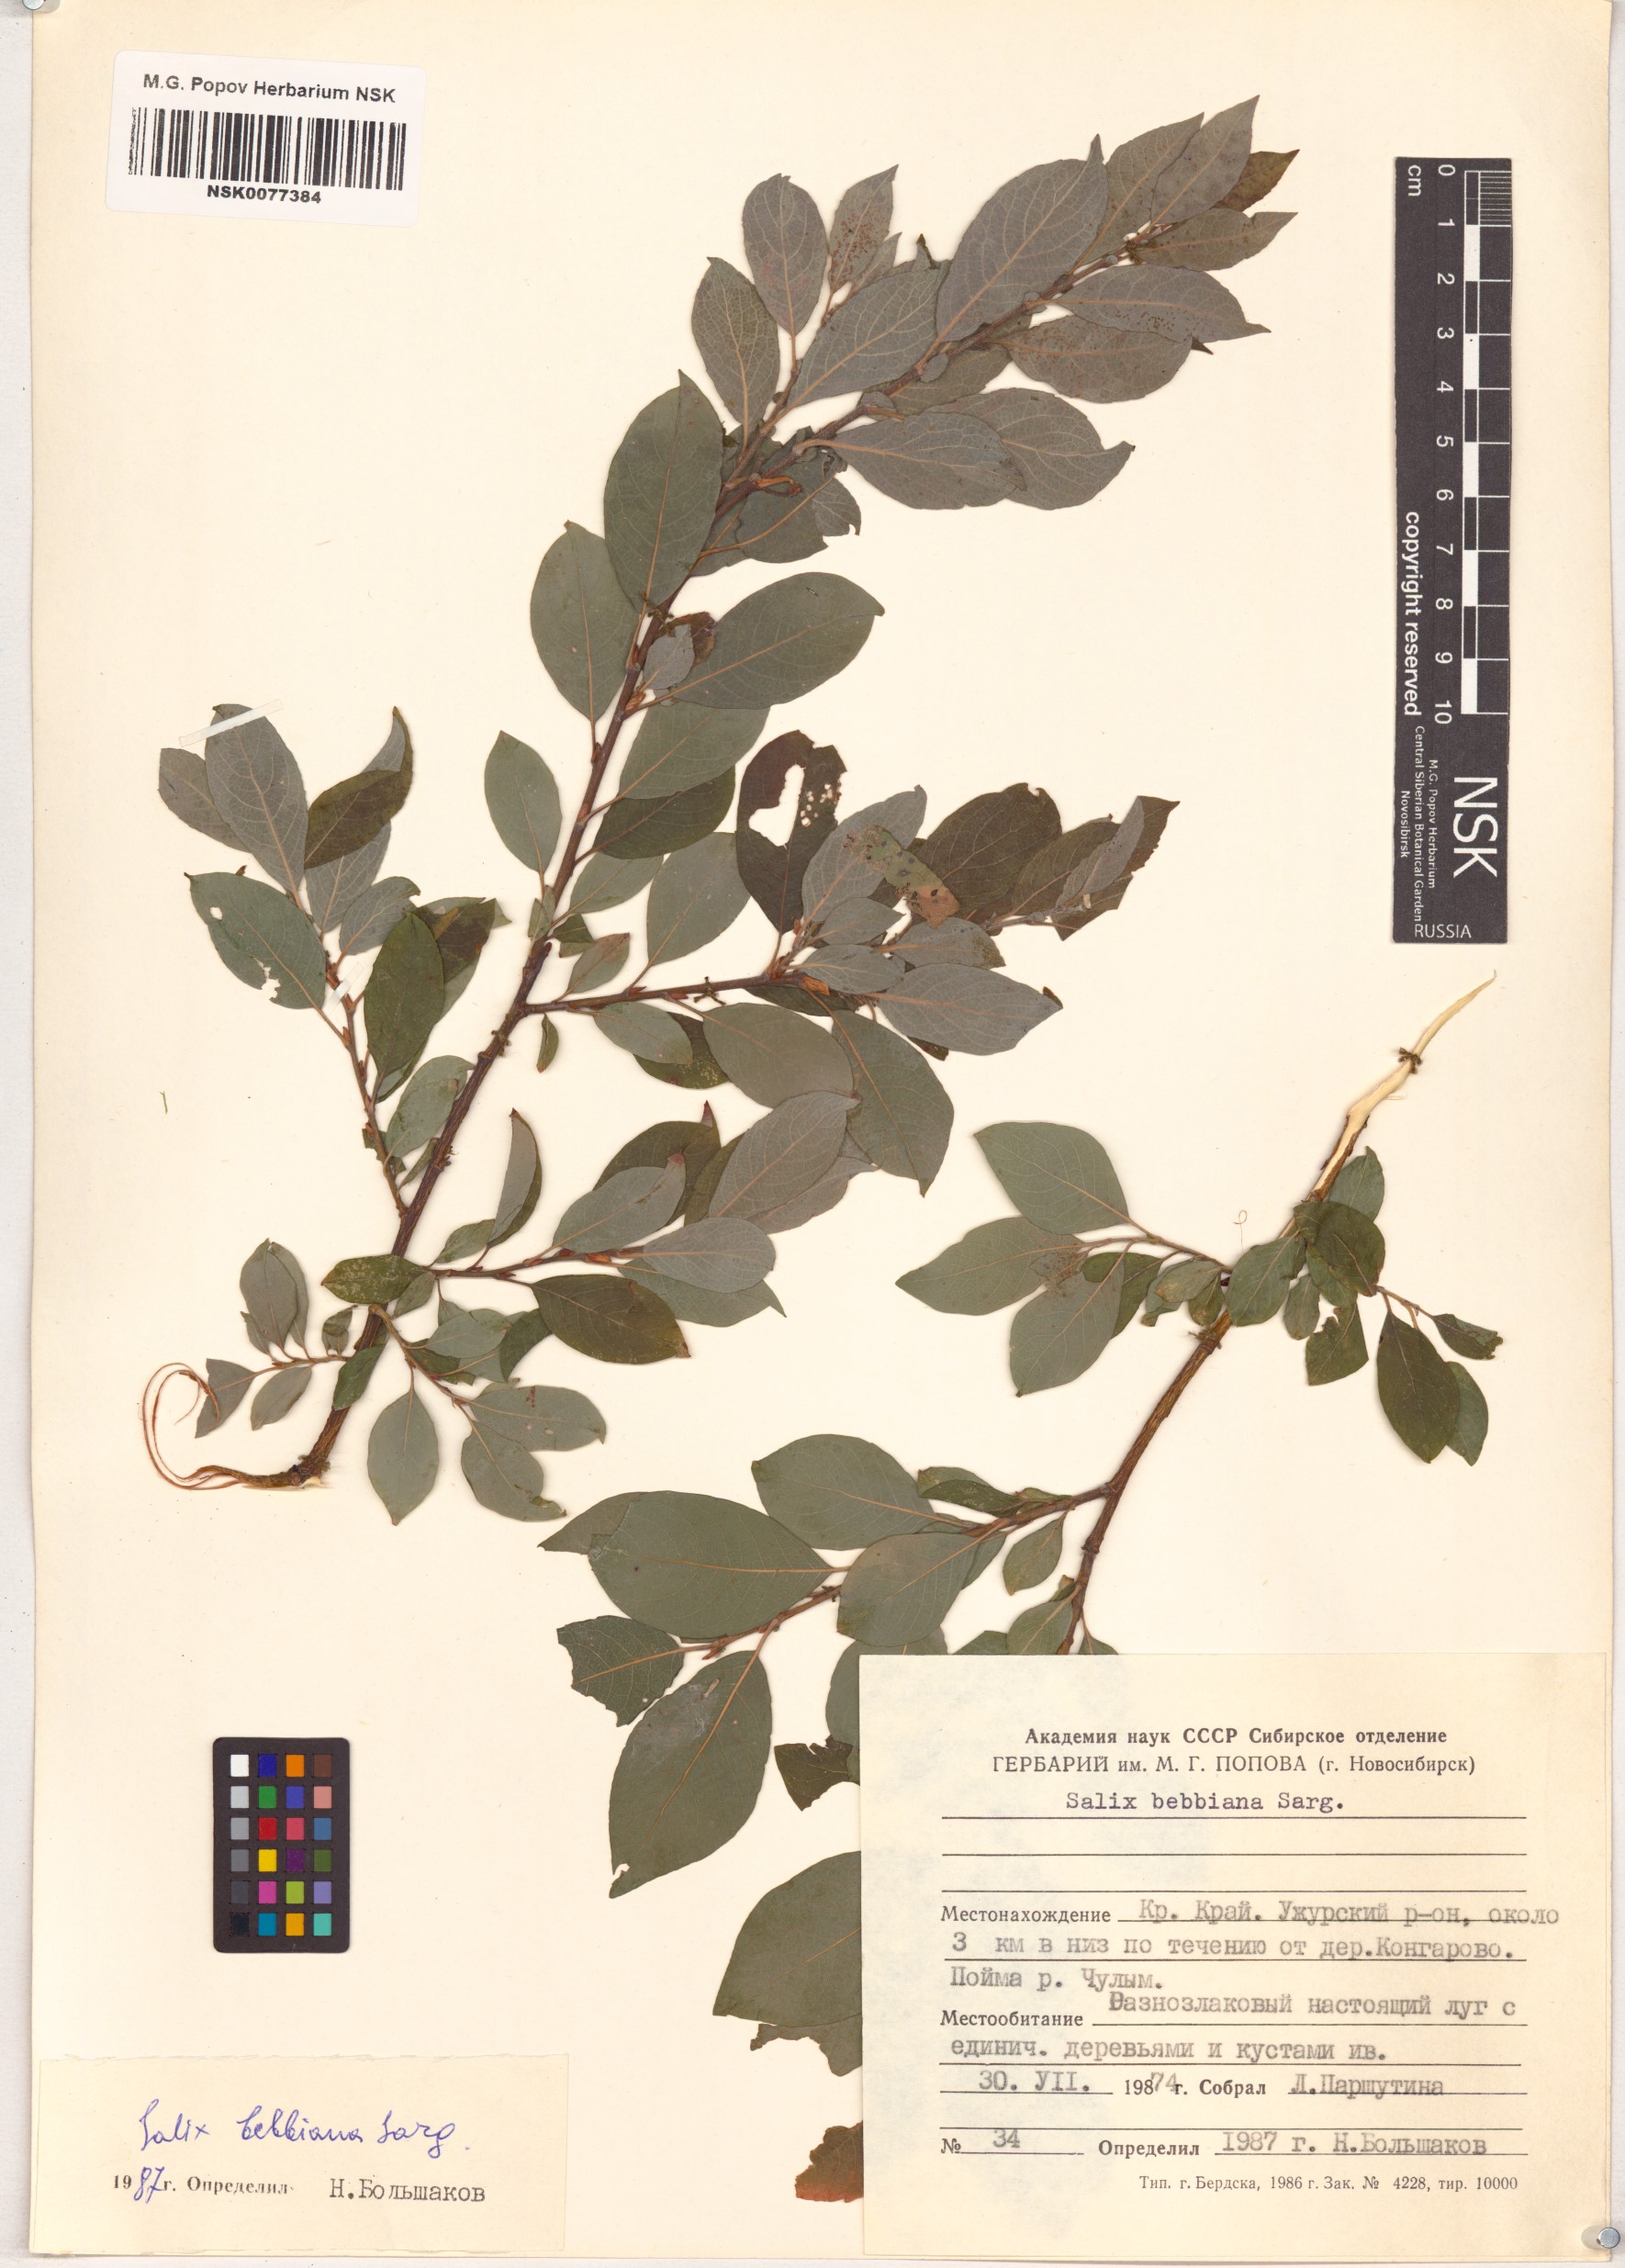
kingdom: Plantae
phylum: Tracheophyta
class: Magnoliopsida
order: Malpighiales
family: Salicaceae
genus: Salix
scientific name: Salix bebbiana
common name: Bebb's willow
